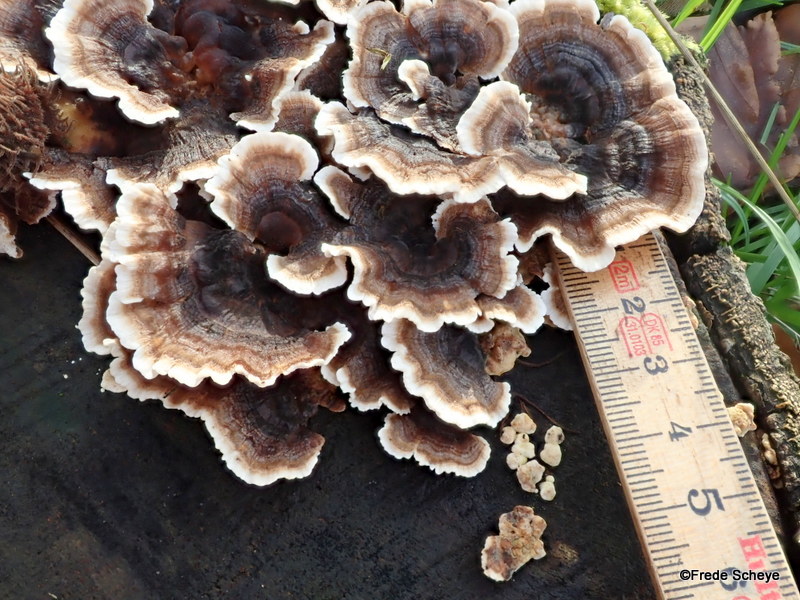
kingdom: Fungi
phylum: Basidiomycota
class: Agaricomycetes
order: Polyporales
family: Polyporaceae
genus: Trametes
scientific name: Trametes versicolor
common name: broget læderporesvamp
